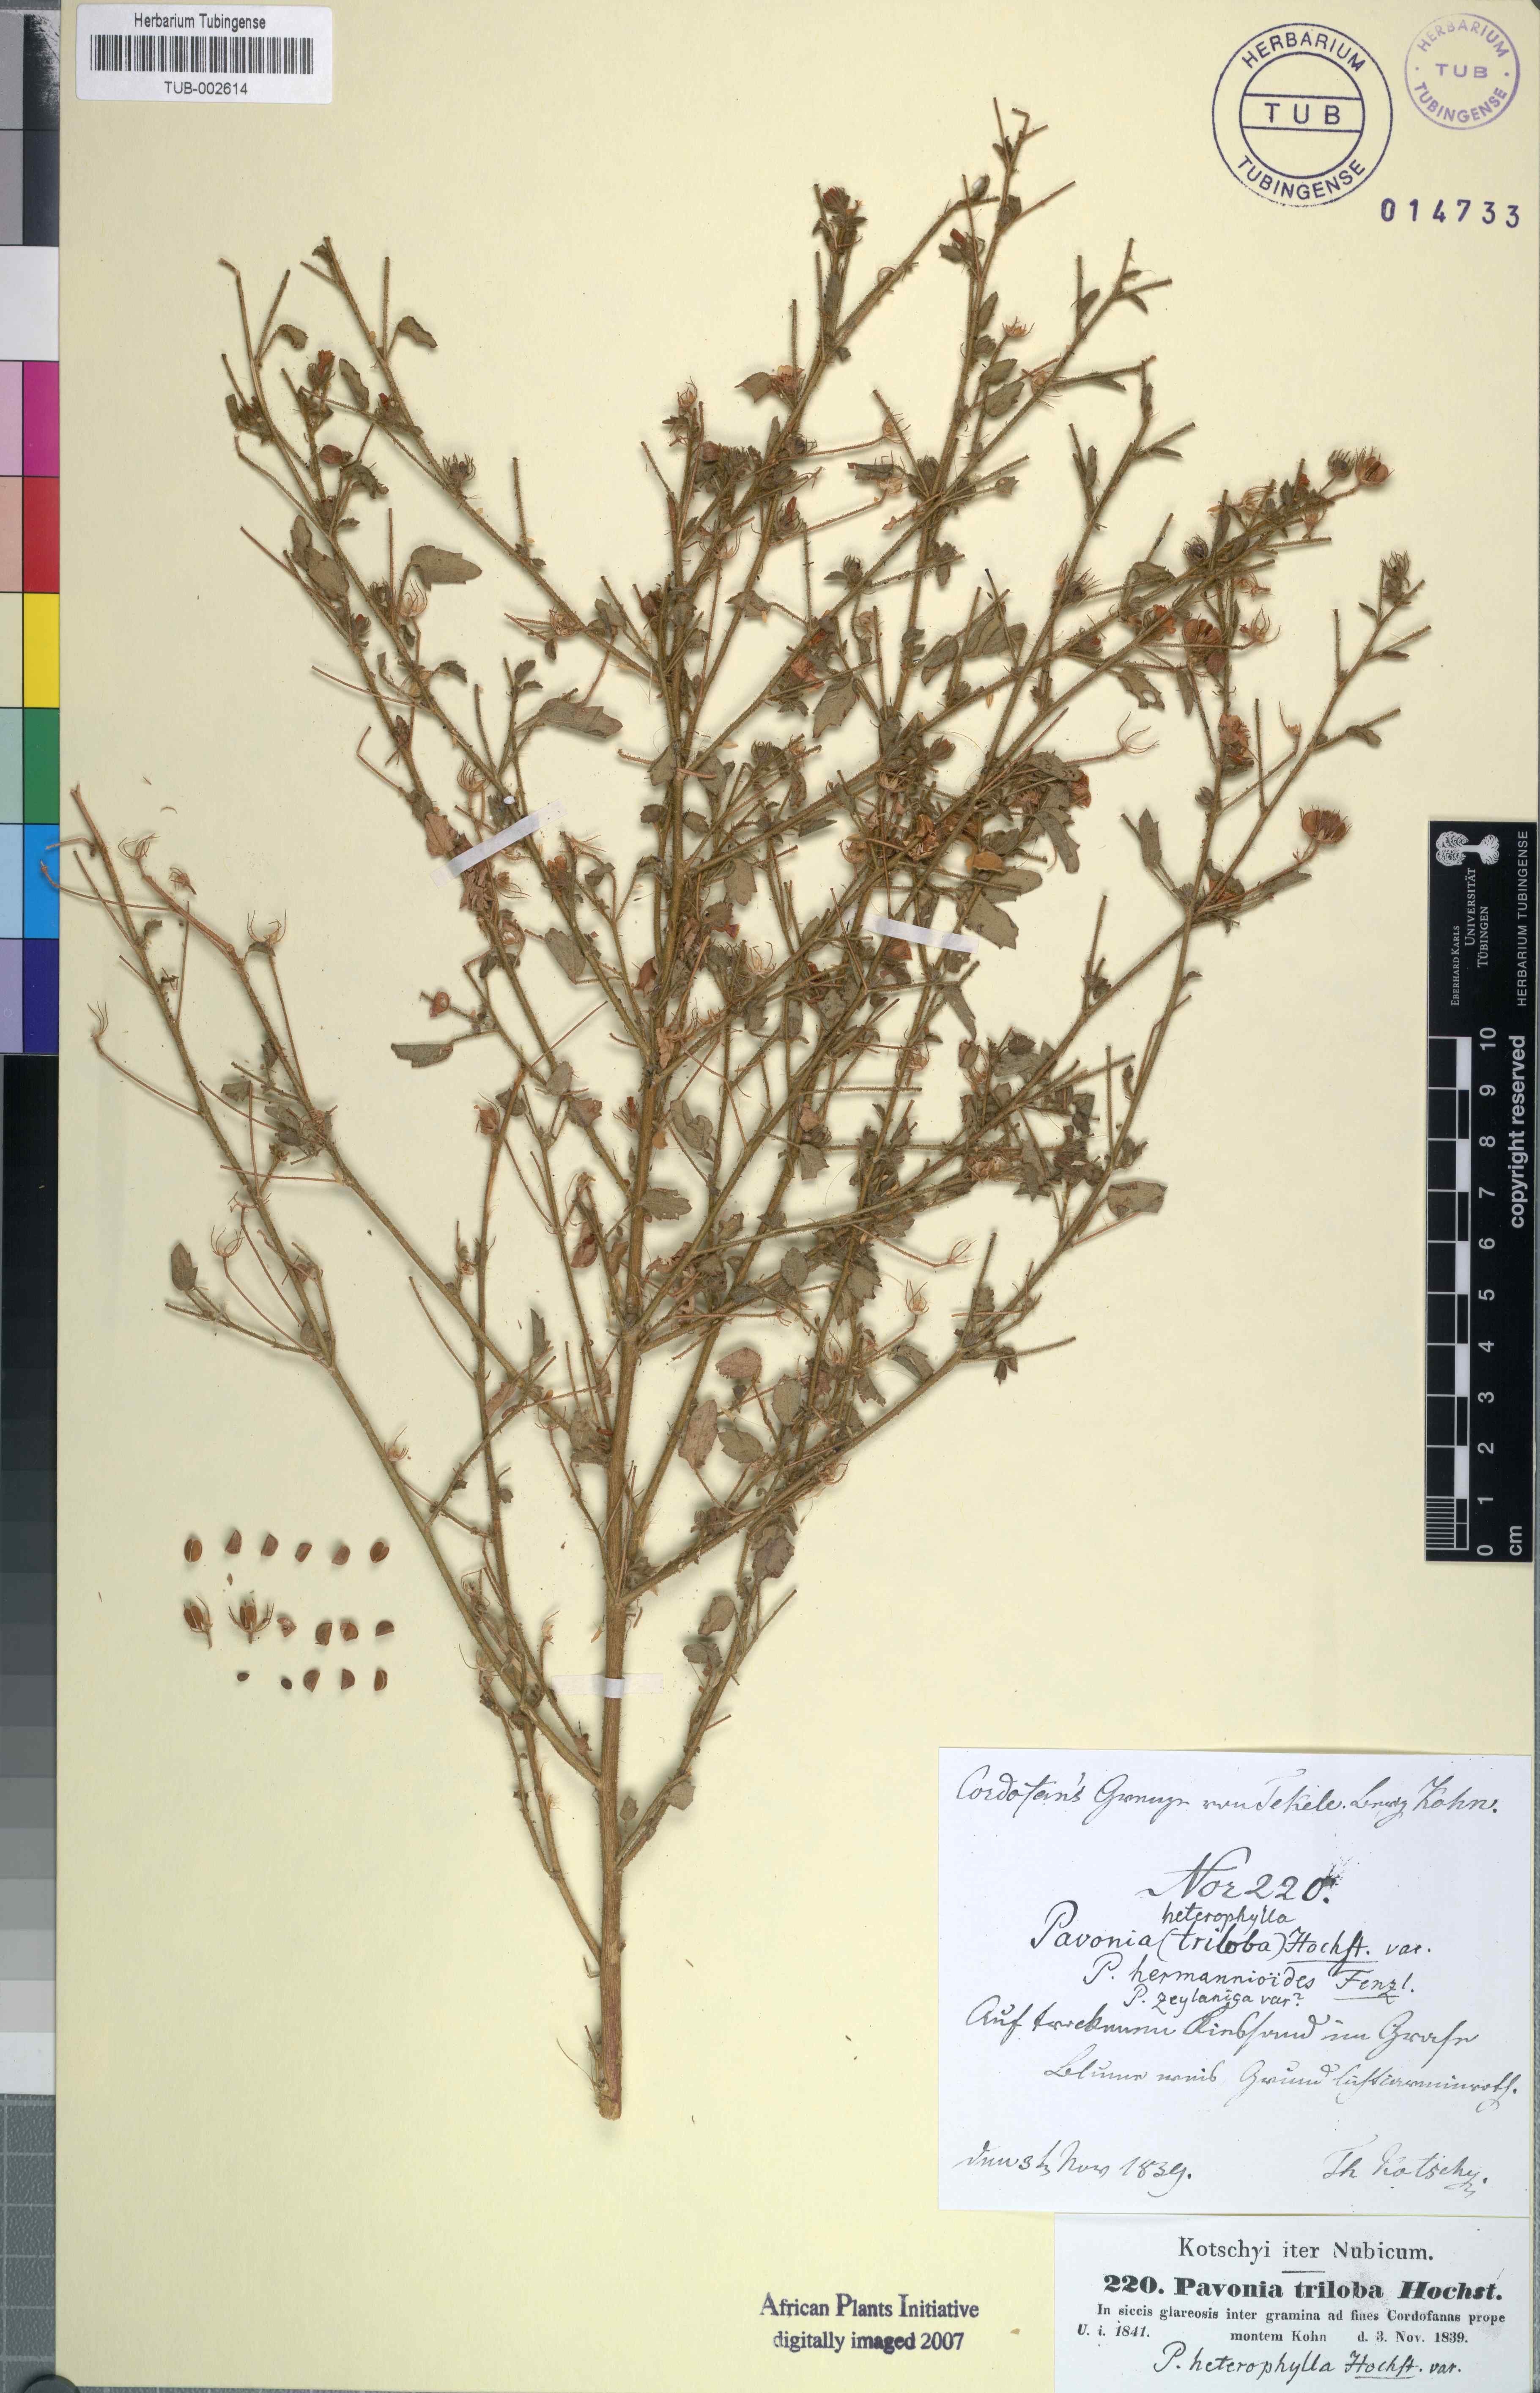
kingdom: Plantae
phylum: Tracheophyta
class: Magnoliopsida
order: Malvales
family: Malvaceae
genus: Pavonia
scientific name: Pavonia triloba
